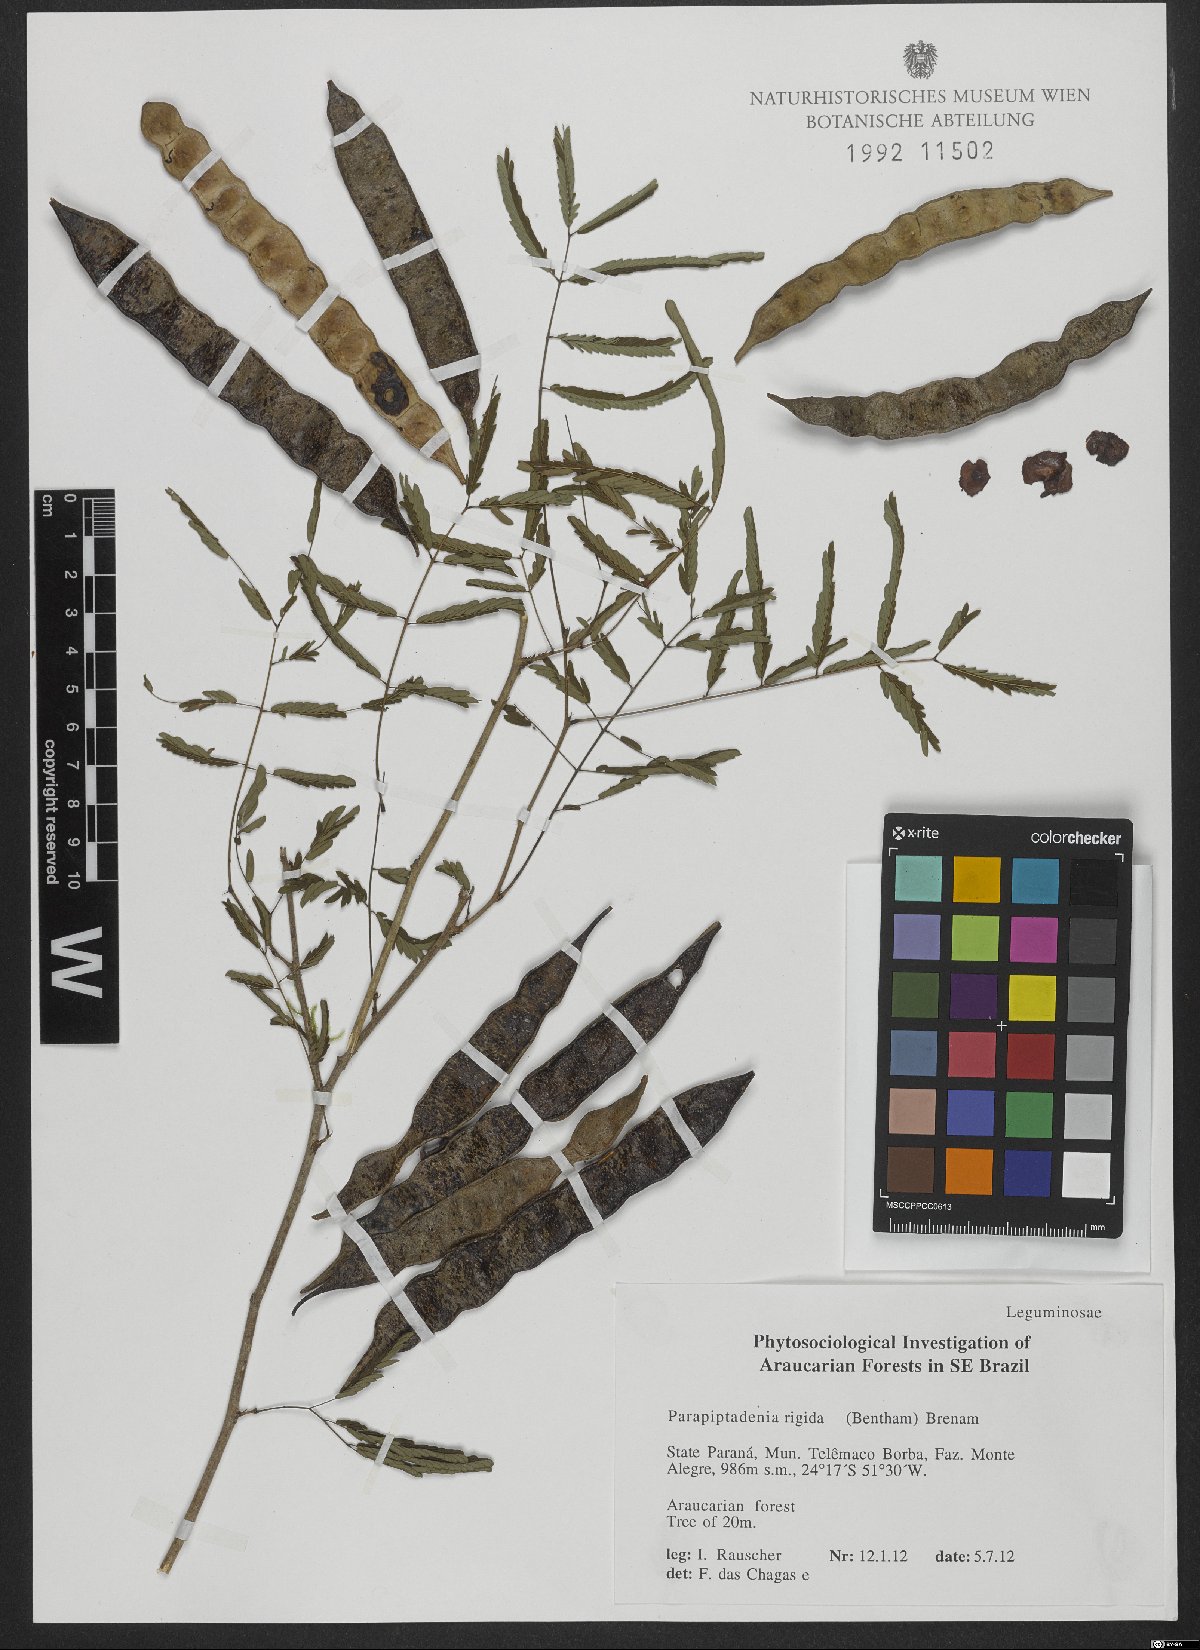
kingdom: Plantae
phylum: Tracheophyta
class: Magnoliopsida
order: Fabales
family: Fabaceae
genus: Parapiptadenia
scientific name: Parapiptadenia rigida
